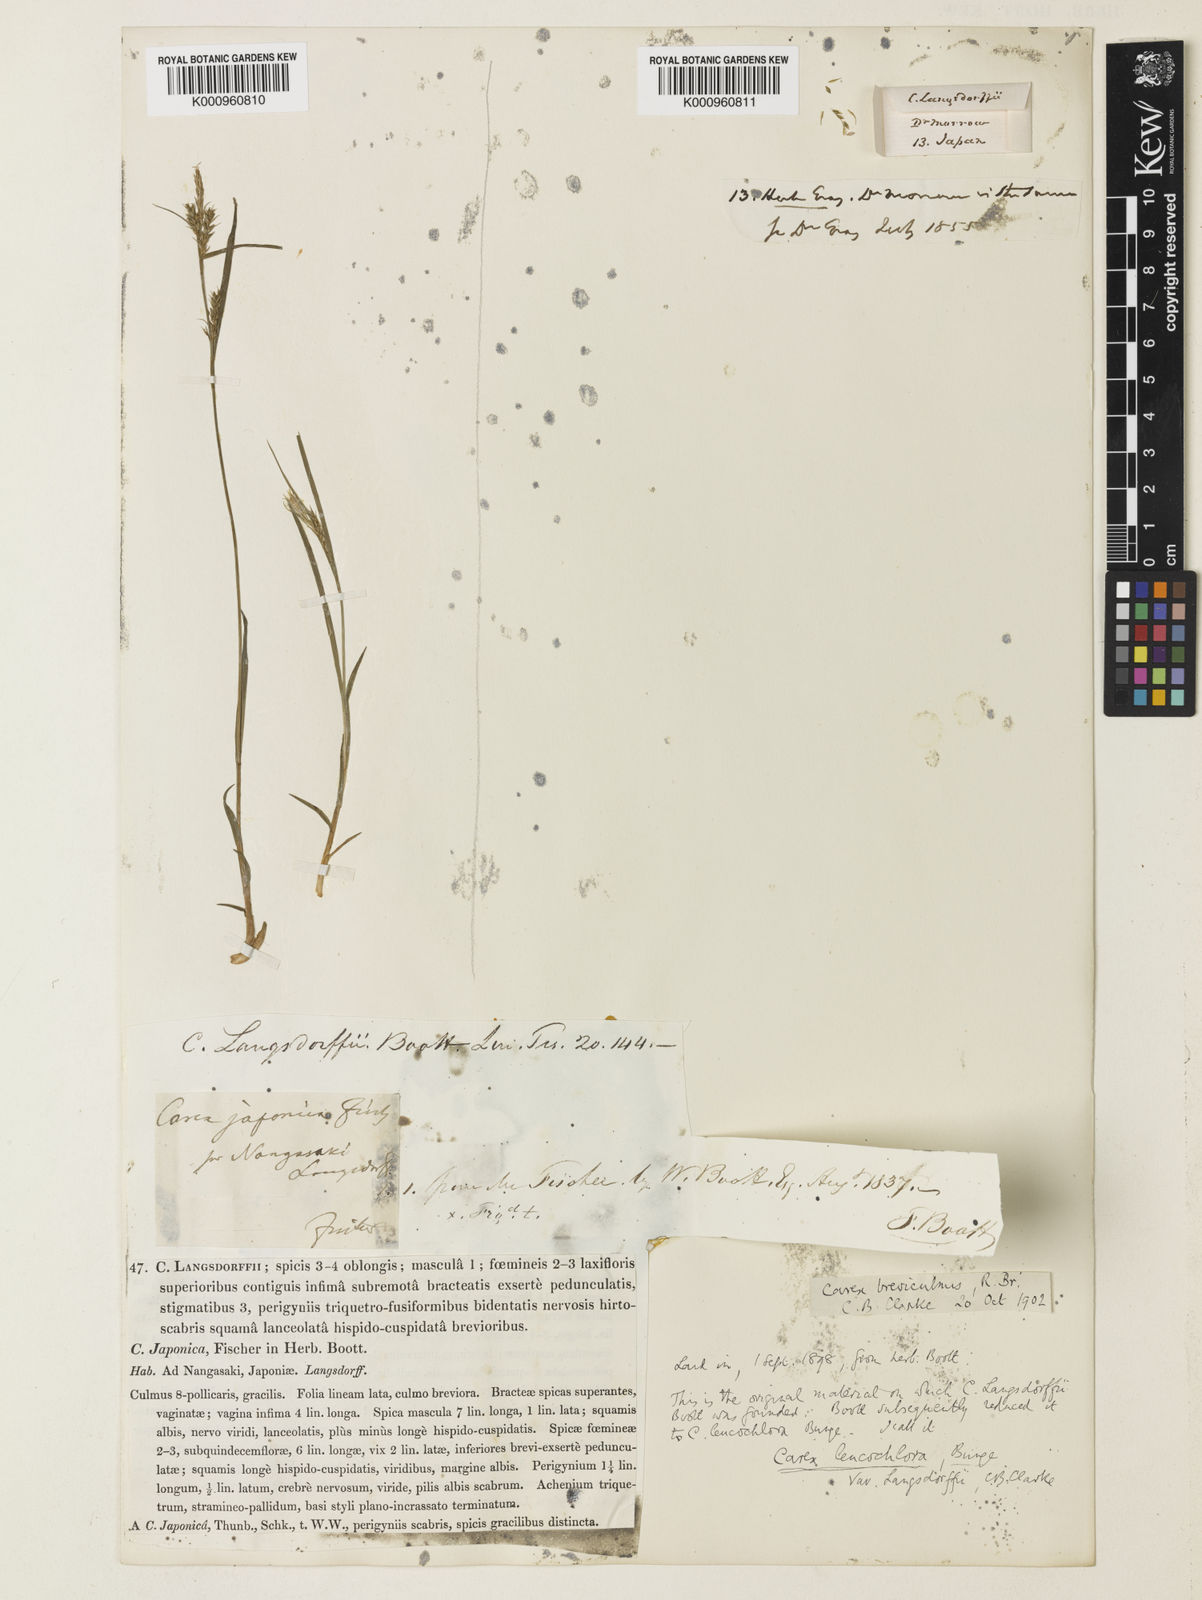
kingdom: Plantae
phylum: Tracheophyta
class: Liliopsida
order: Poales
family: Cyperaceae
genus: Carex
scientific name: Carex breviculmis
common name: Asian shortstem sedge
